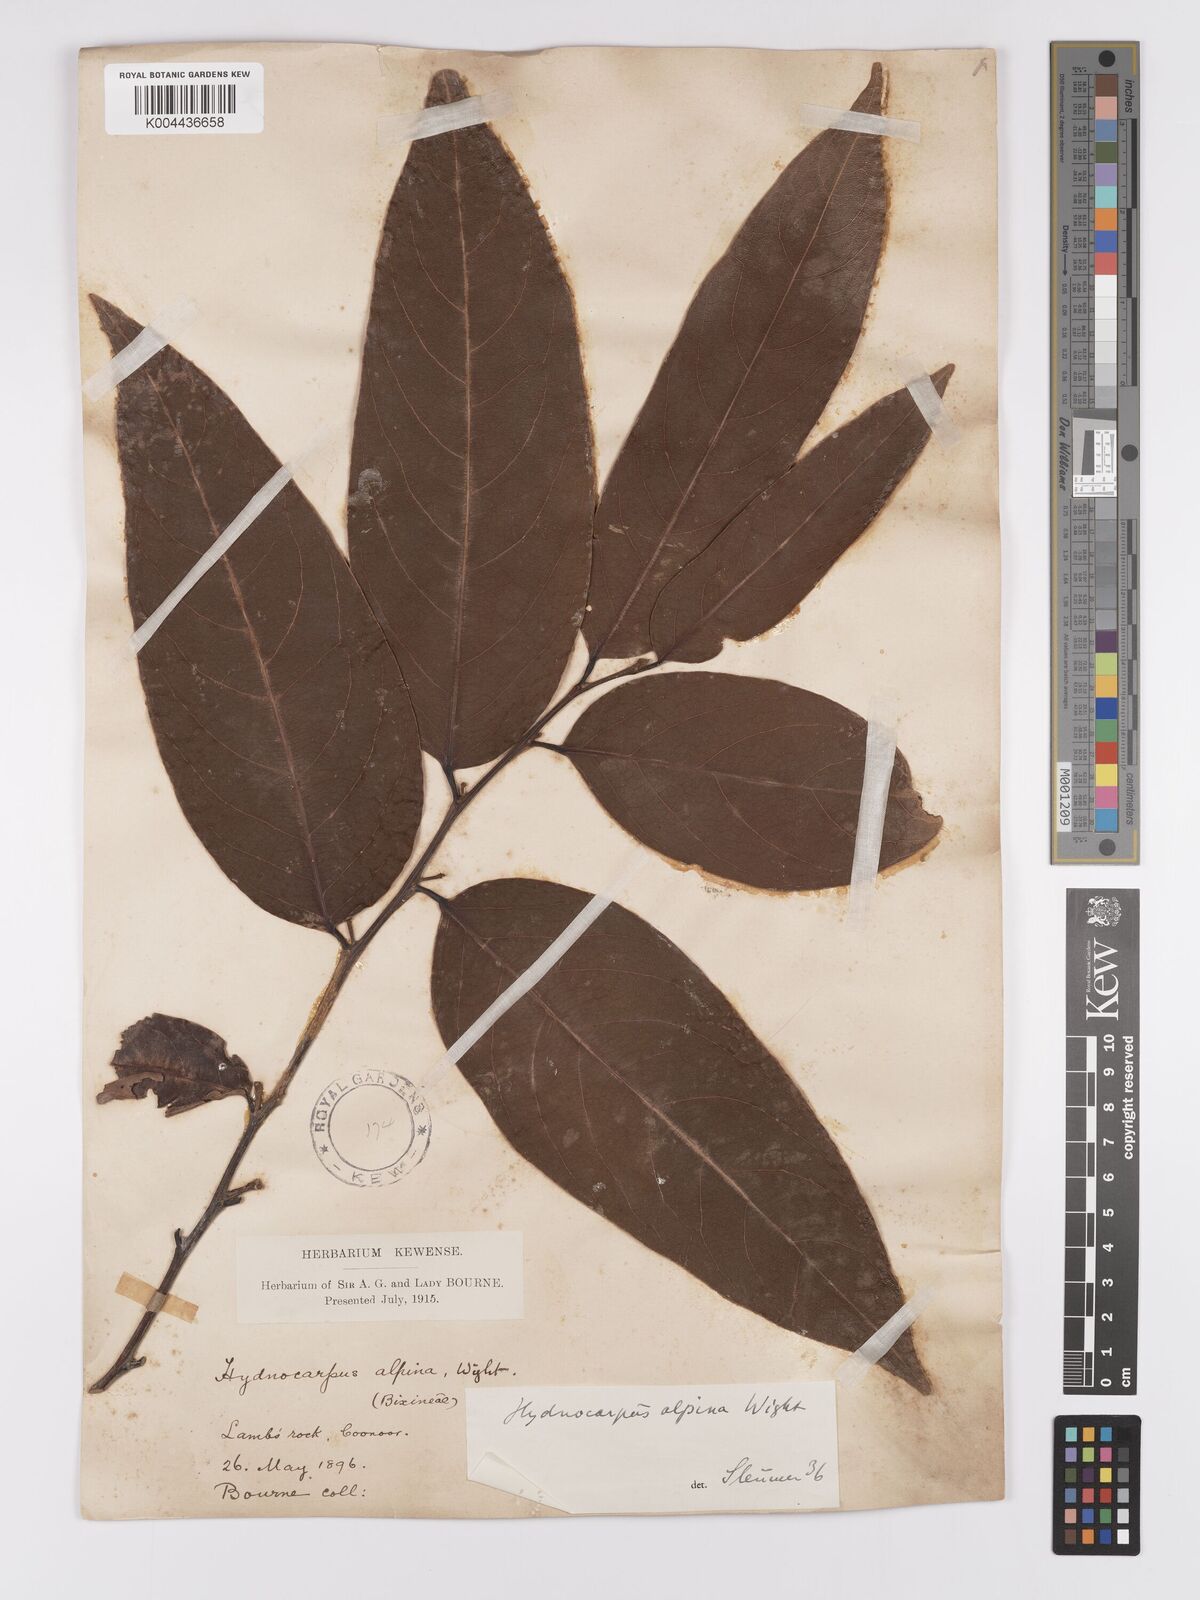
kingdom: Plantae
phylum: Tracheophyta
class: Magnoliopsida
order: Malpighiales
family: Achariaceae
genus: Hydnocarpus
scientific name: Hydnocarpus alpinus
